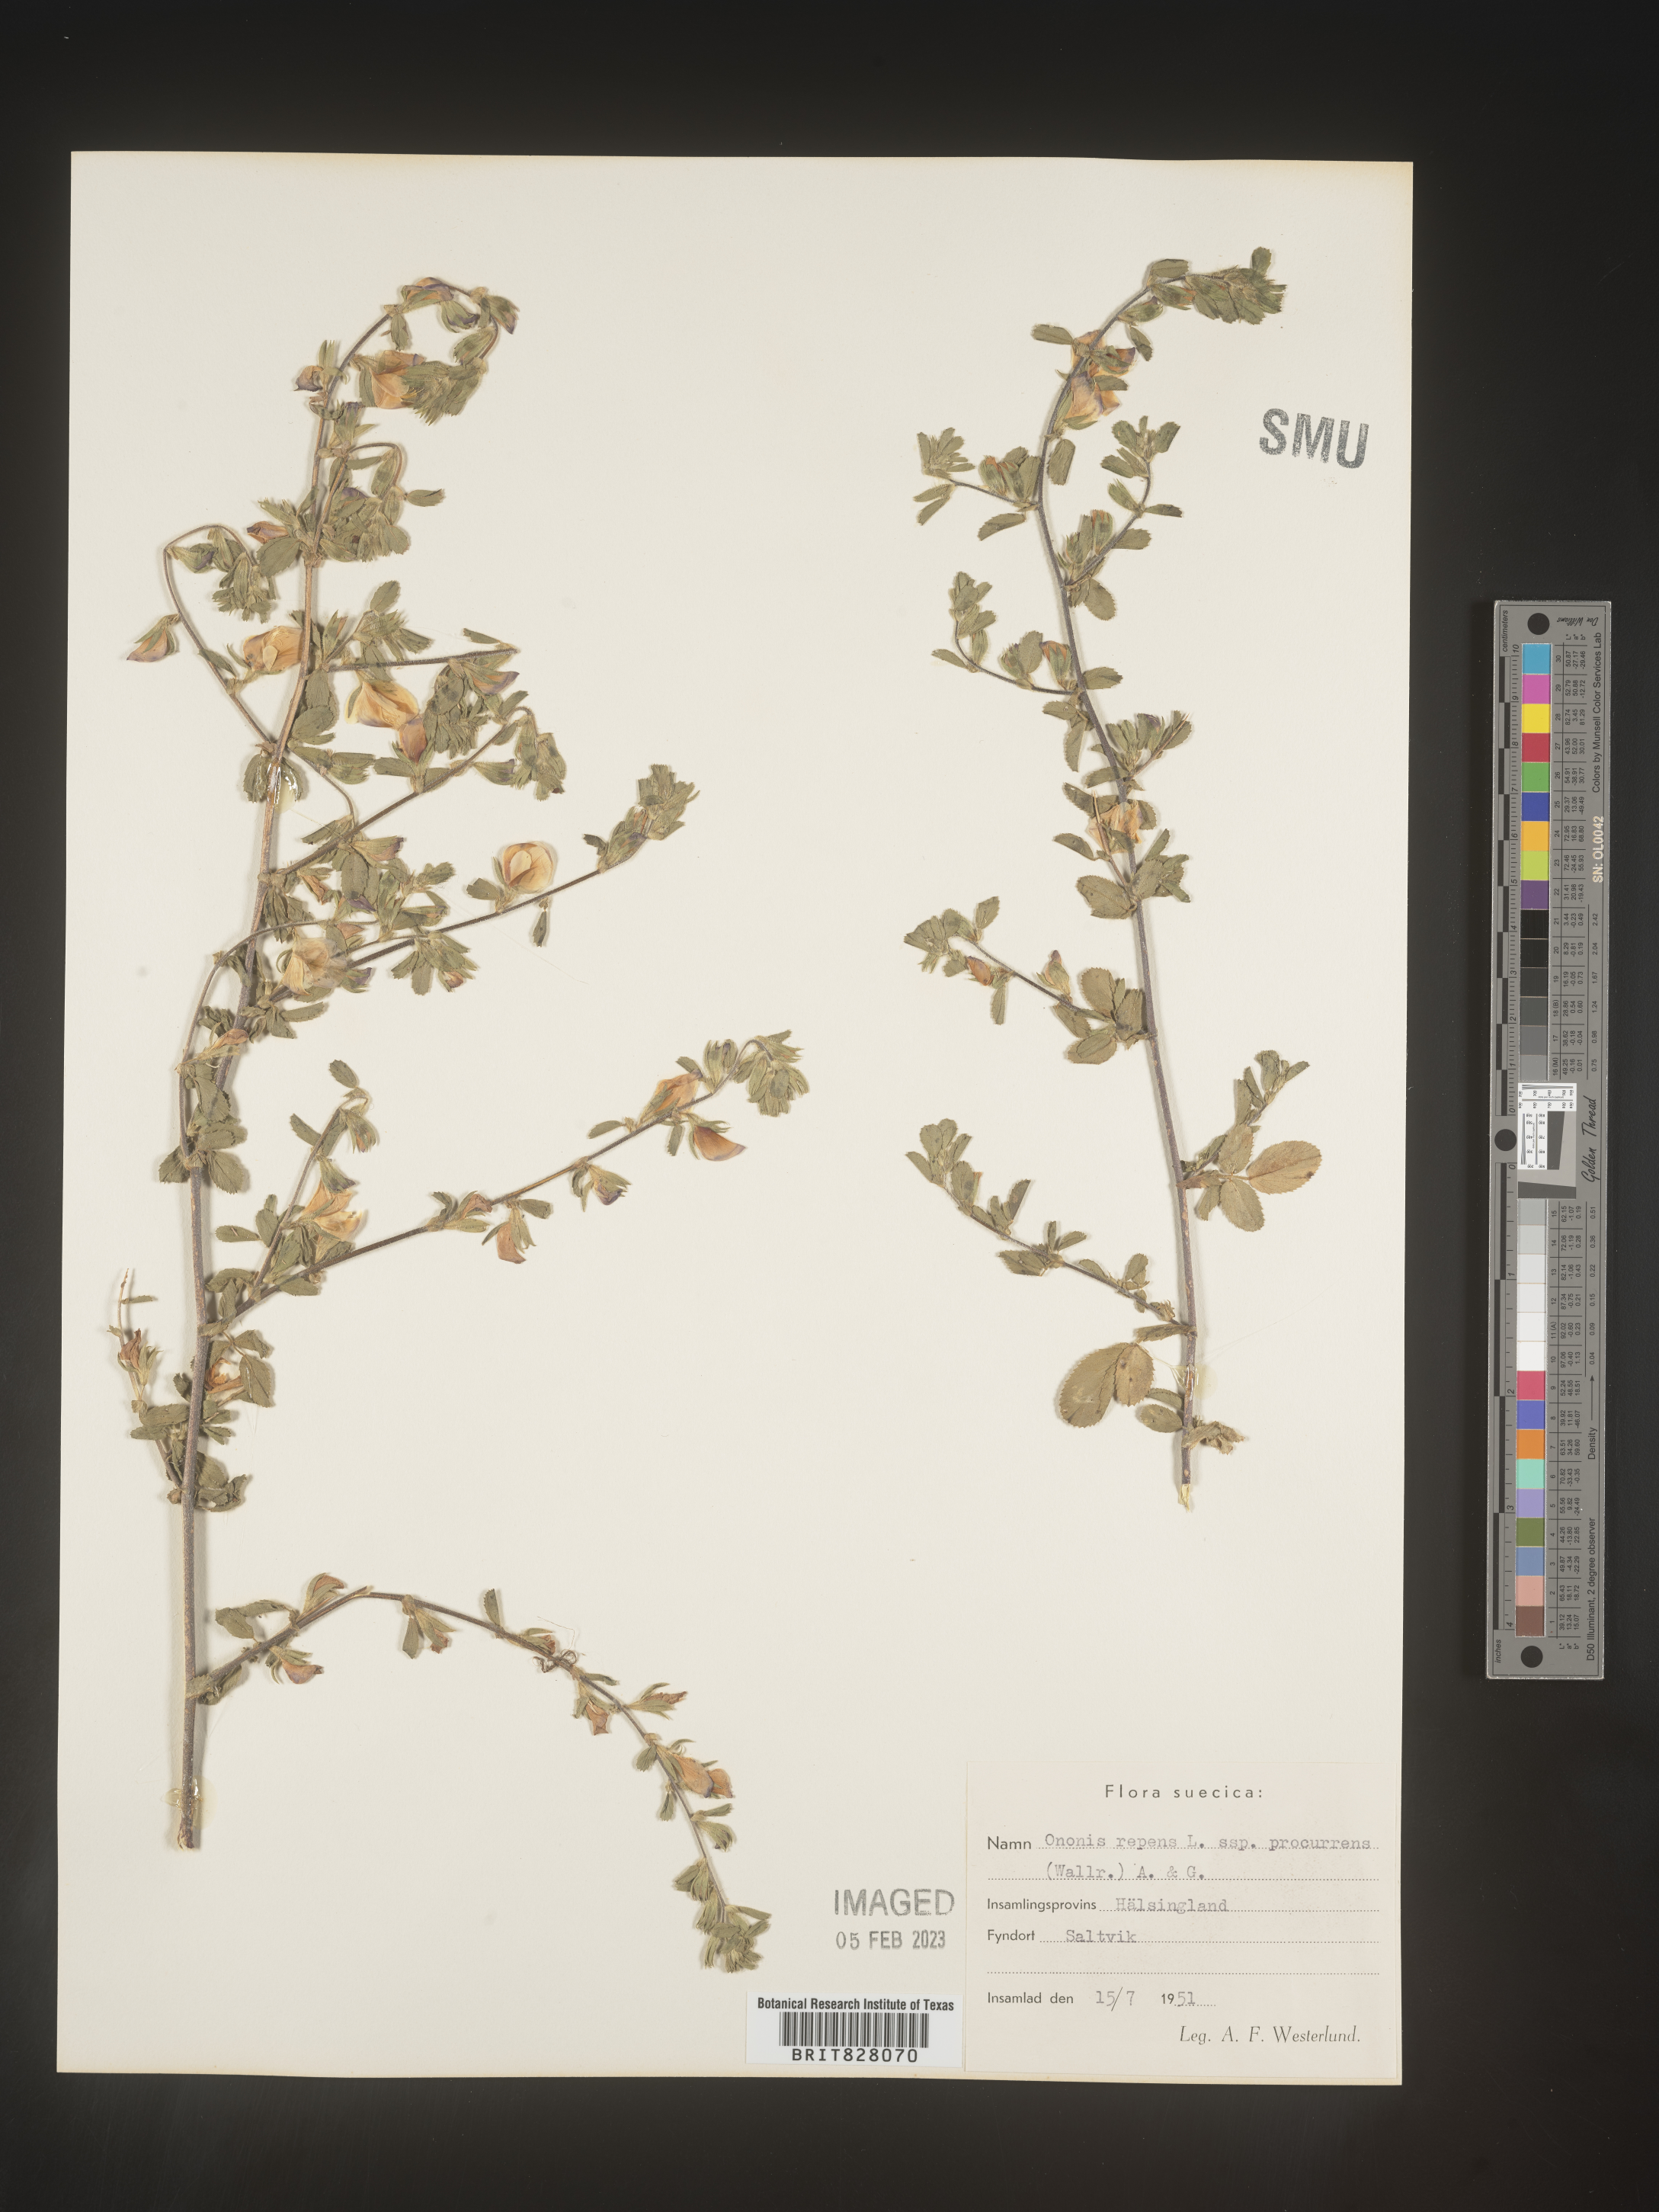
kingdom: Plantae
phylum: Tracheophyta
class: Magnoliopsida
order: Fabales
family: Fabaceae
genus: Ononis
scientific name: Ononis
